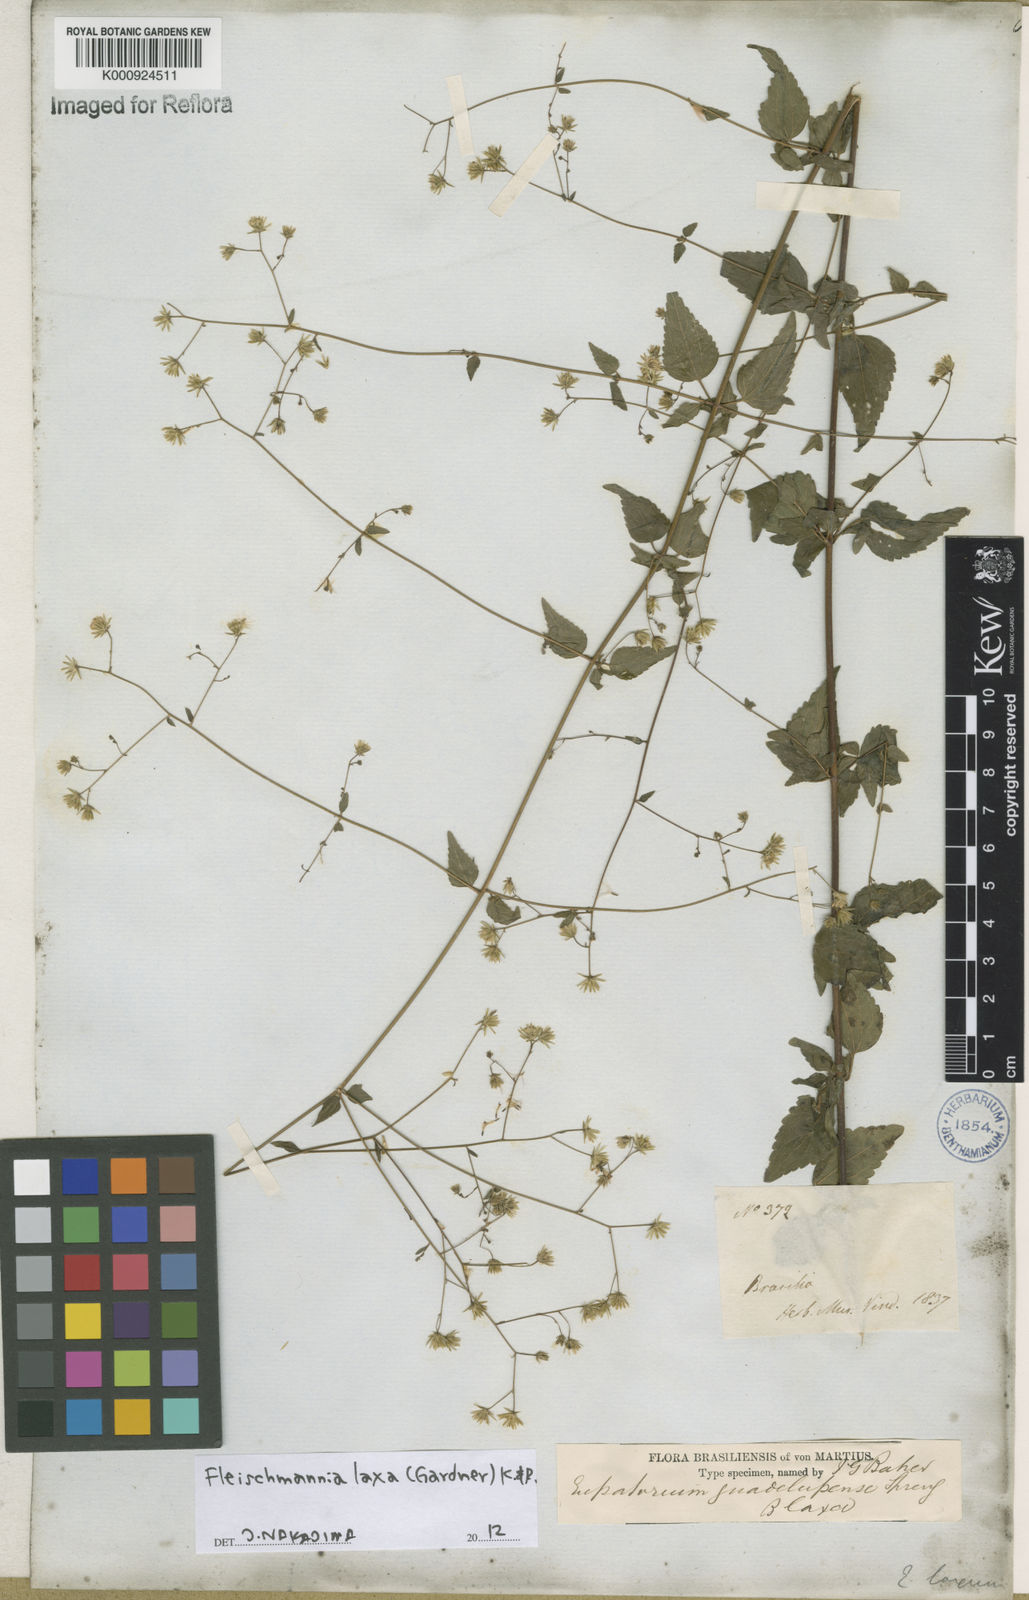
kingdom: Plantae
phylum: Tracheophyta
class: Magnoliopsida
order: Asterales
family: Asteraceae
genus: Fleischmannia
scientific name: Fleischmannia laxa
